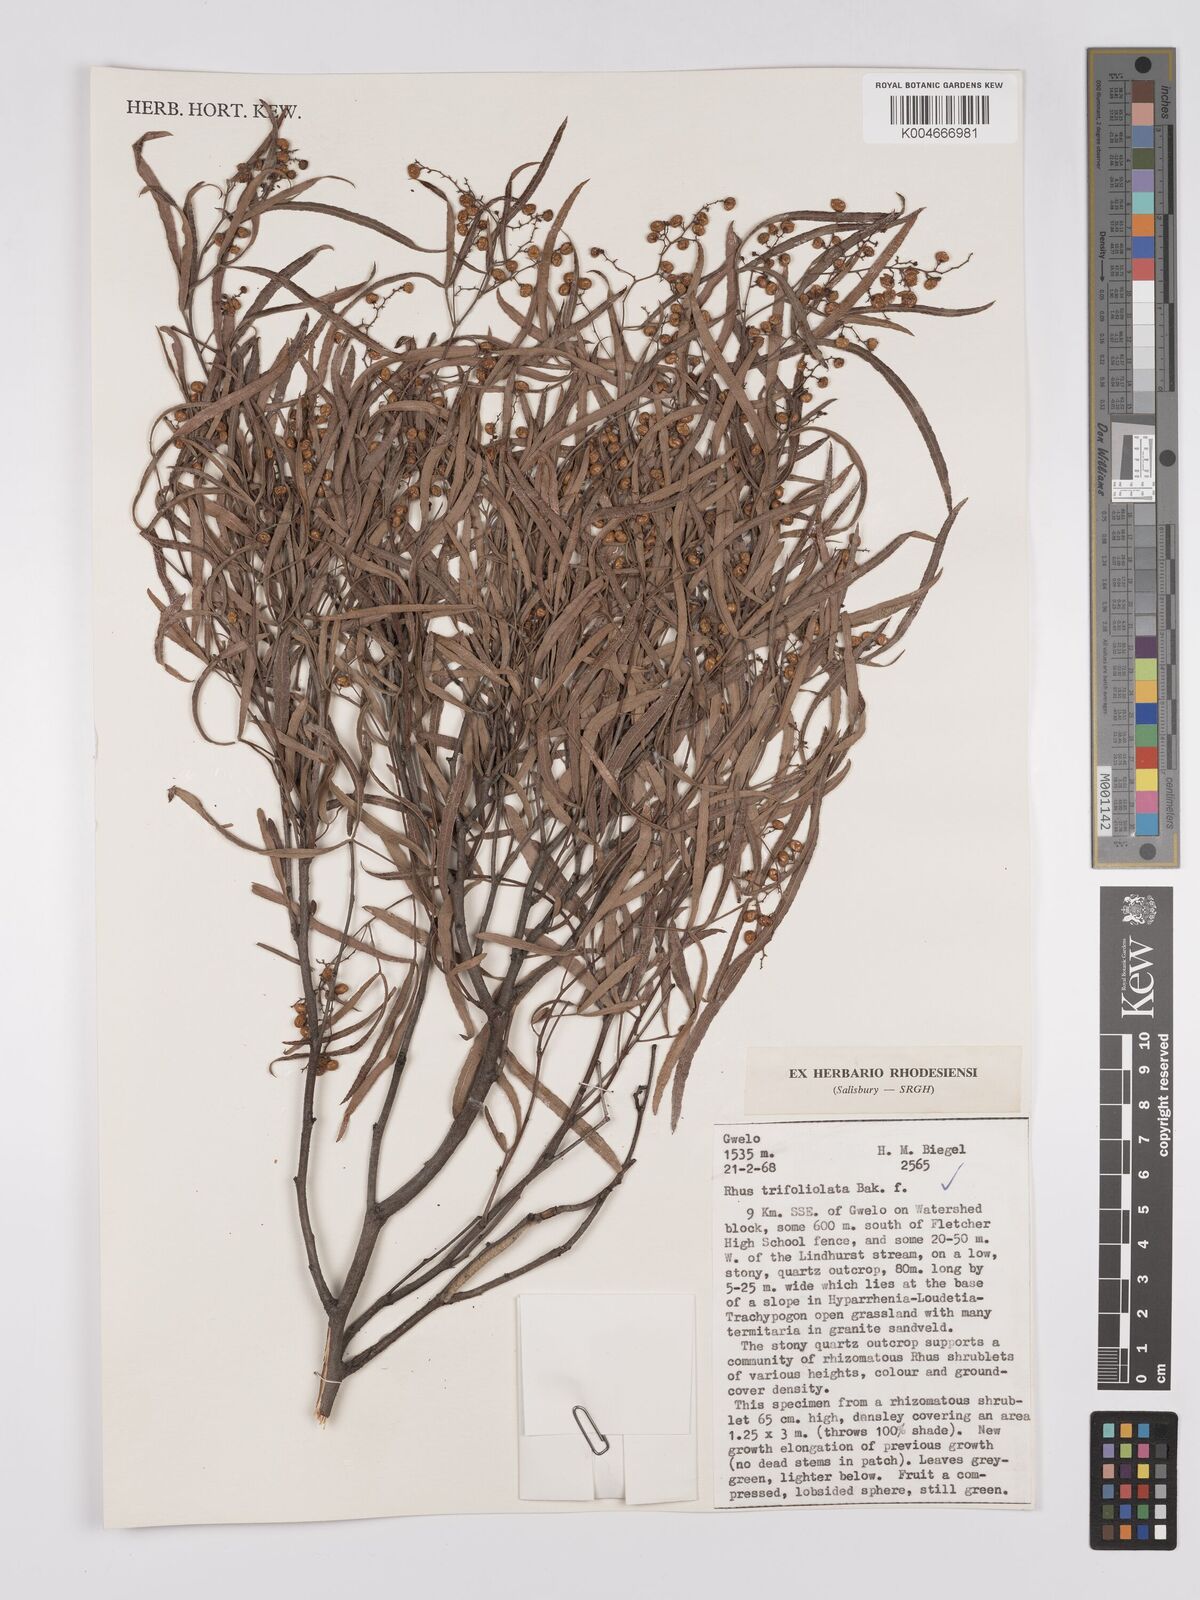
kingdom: Plantae
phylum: Tracheophyta
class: Magnoliopsida
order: Sapindales
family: Anacardiaceae
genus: Searsia
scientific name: Searsia magalismontana
